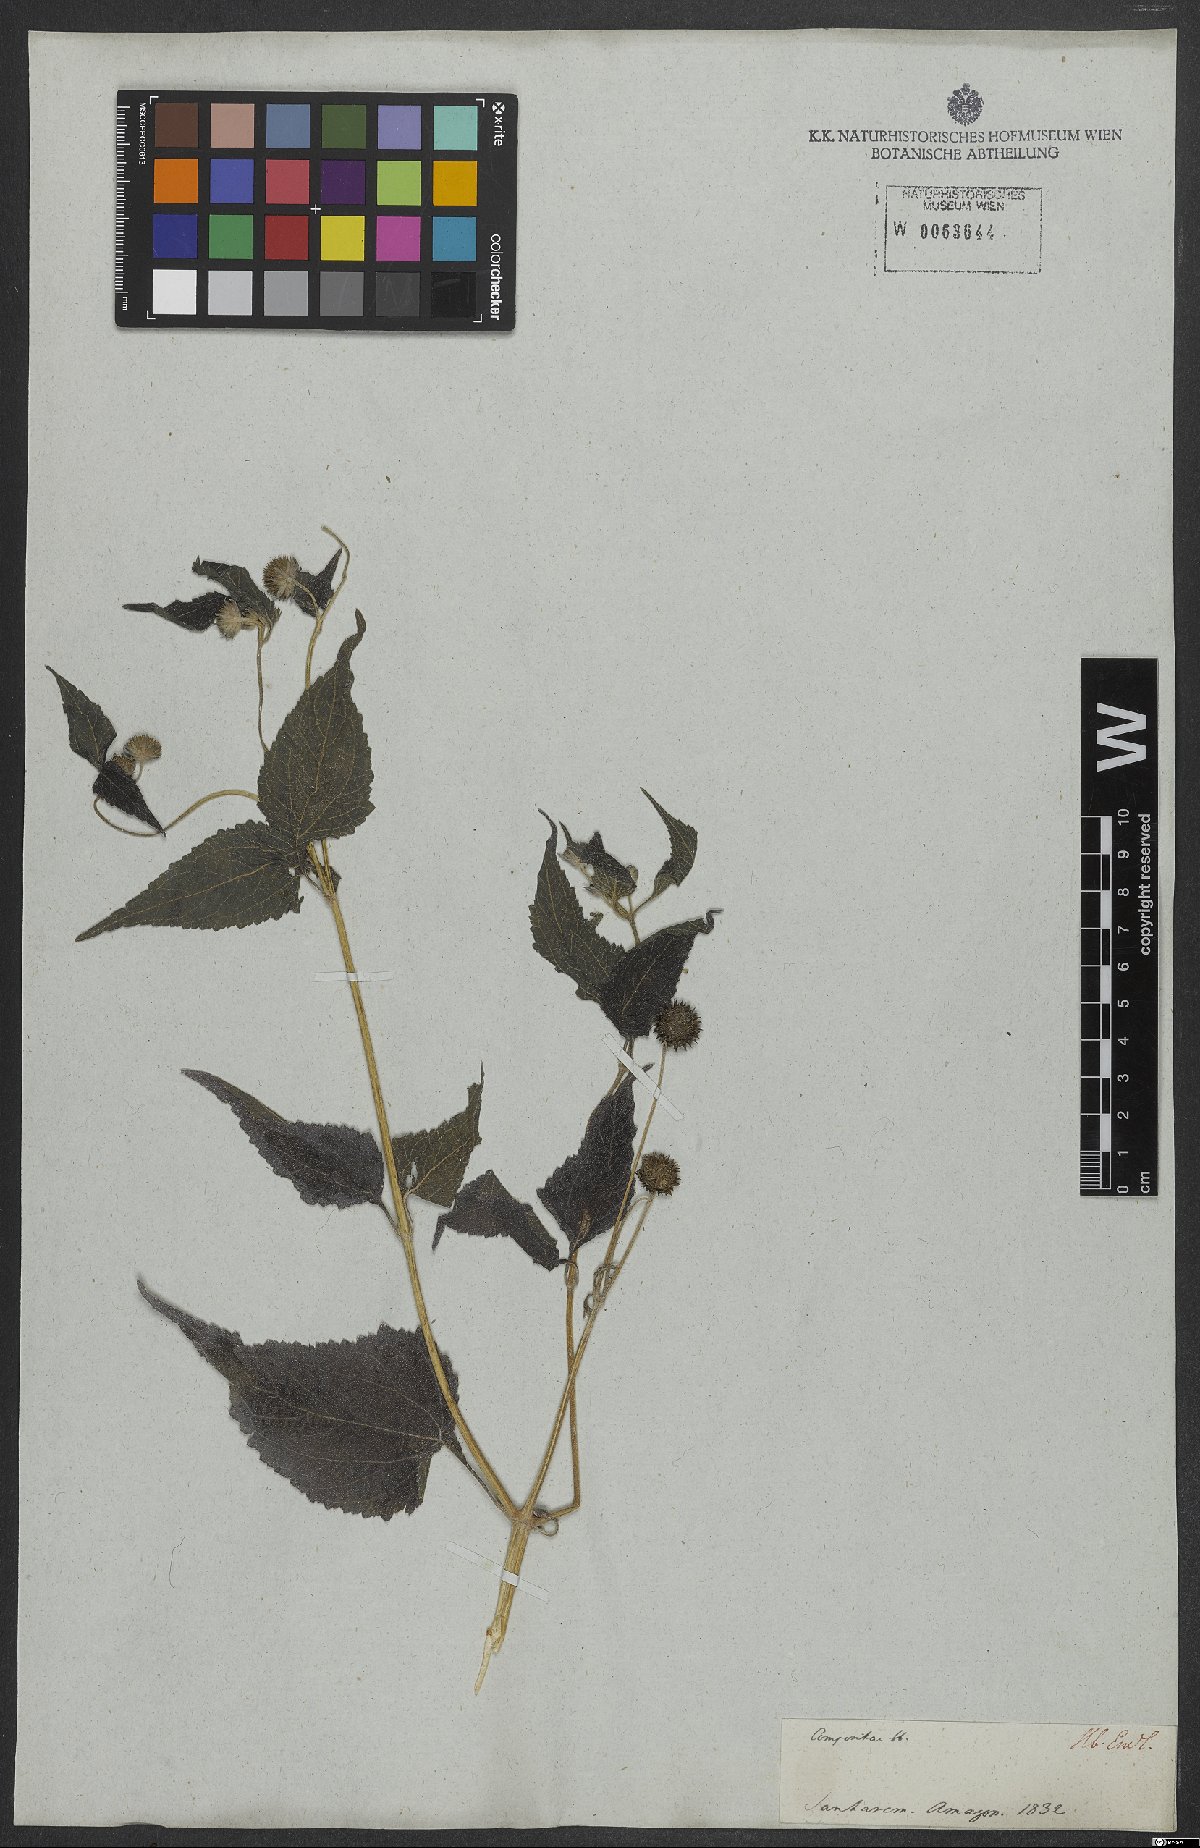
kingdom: Plantae
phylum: Tracheophyta
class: Magnoliopsida
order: Asterales
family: Asteraceae
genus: Melanthera
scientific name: Melanthera
